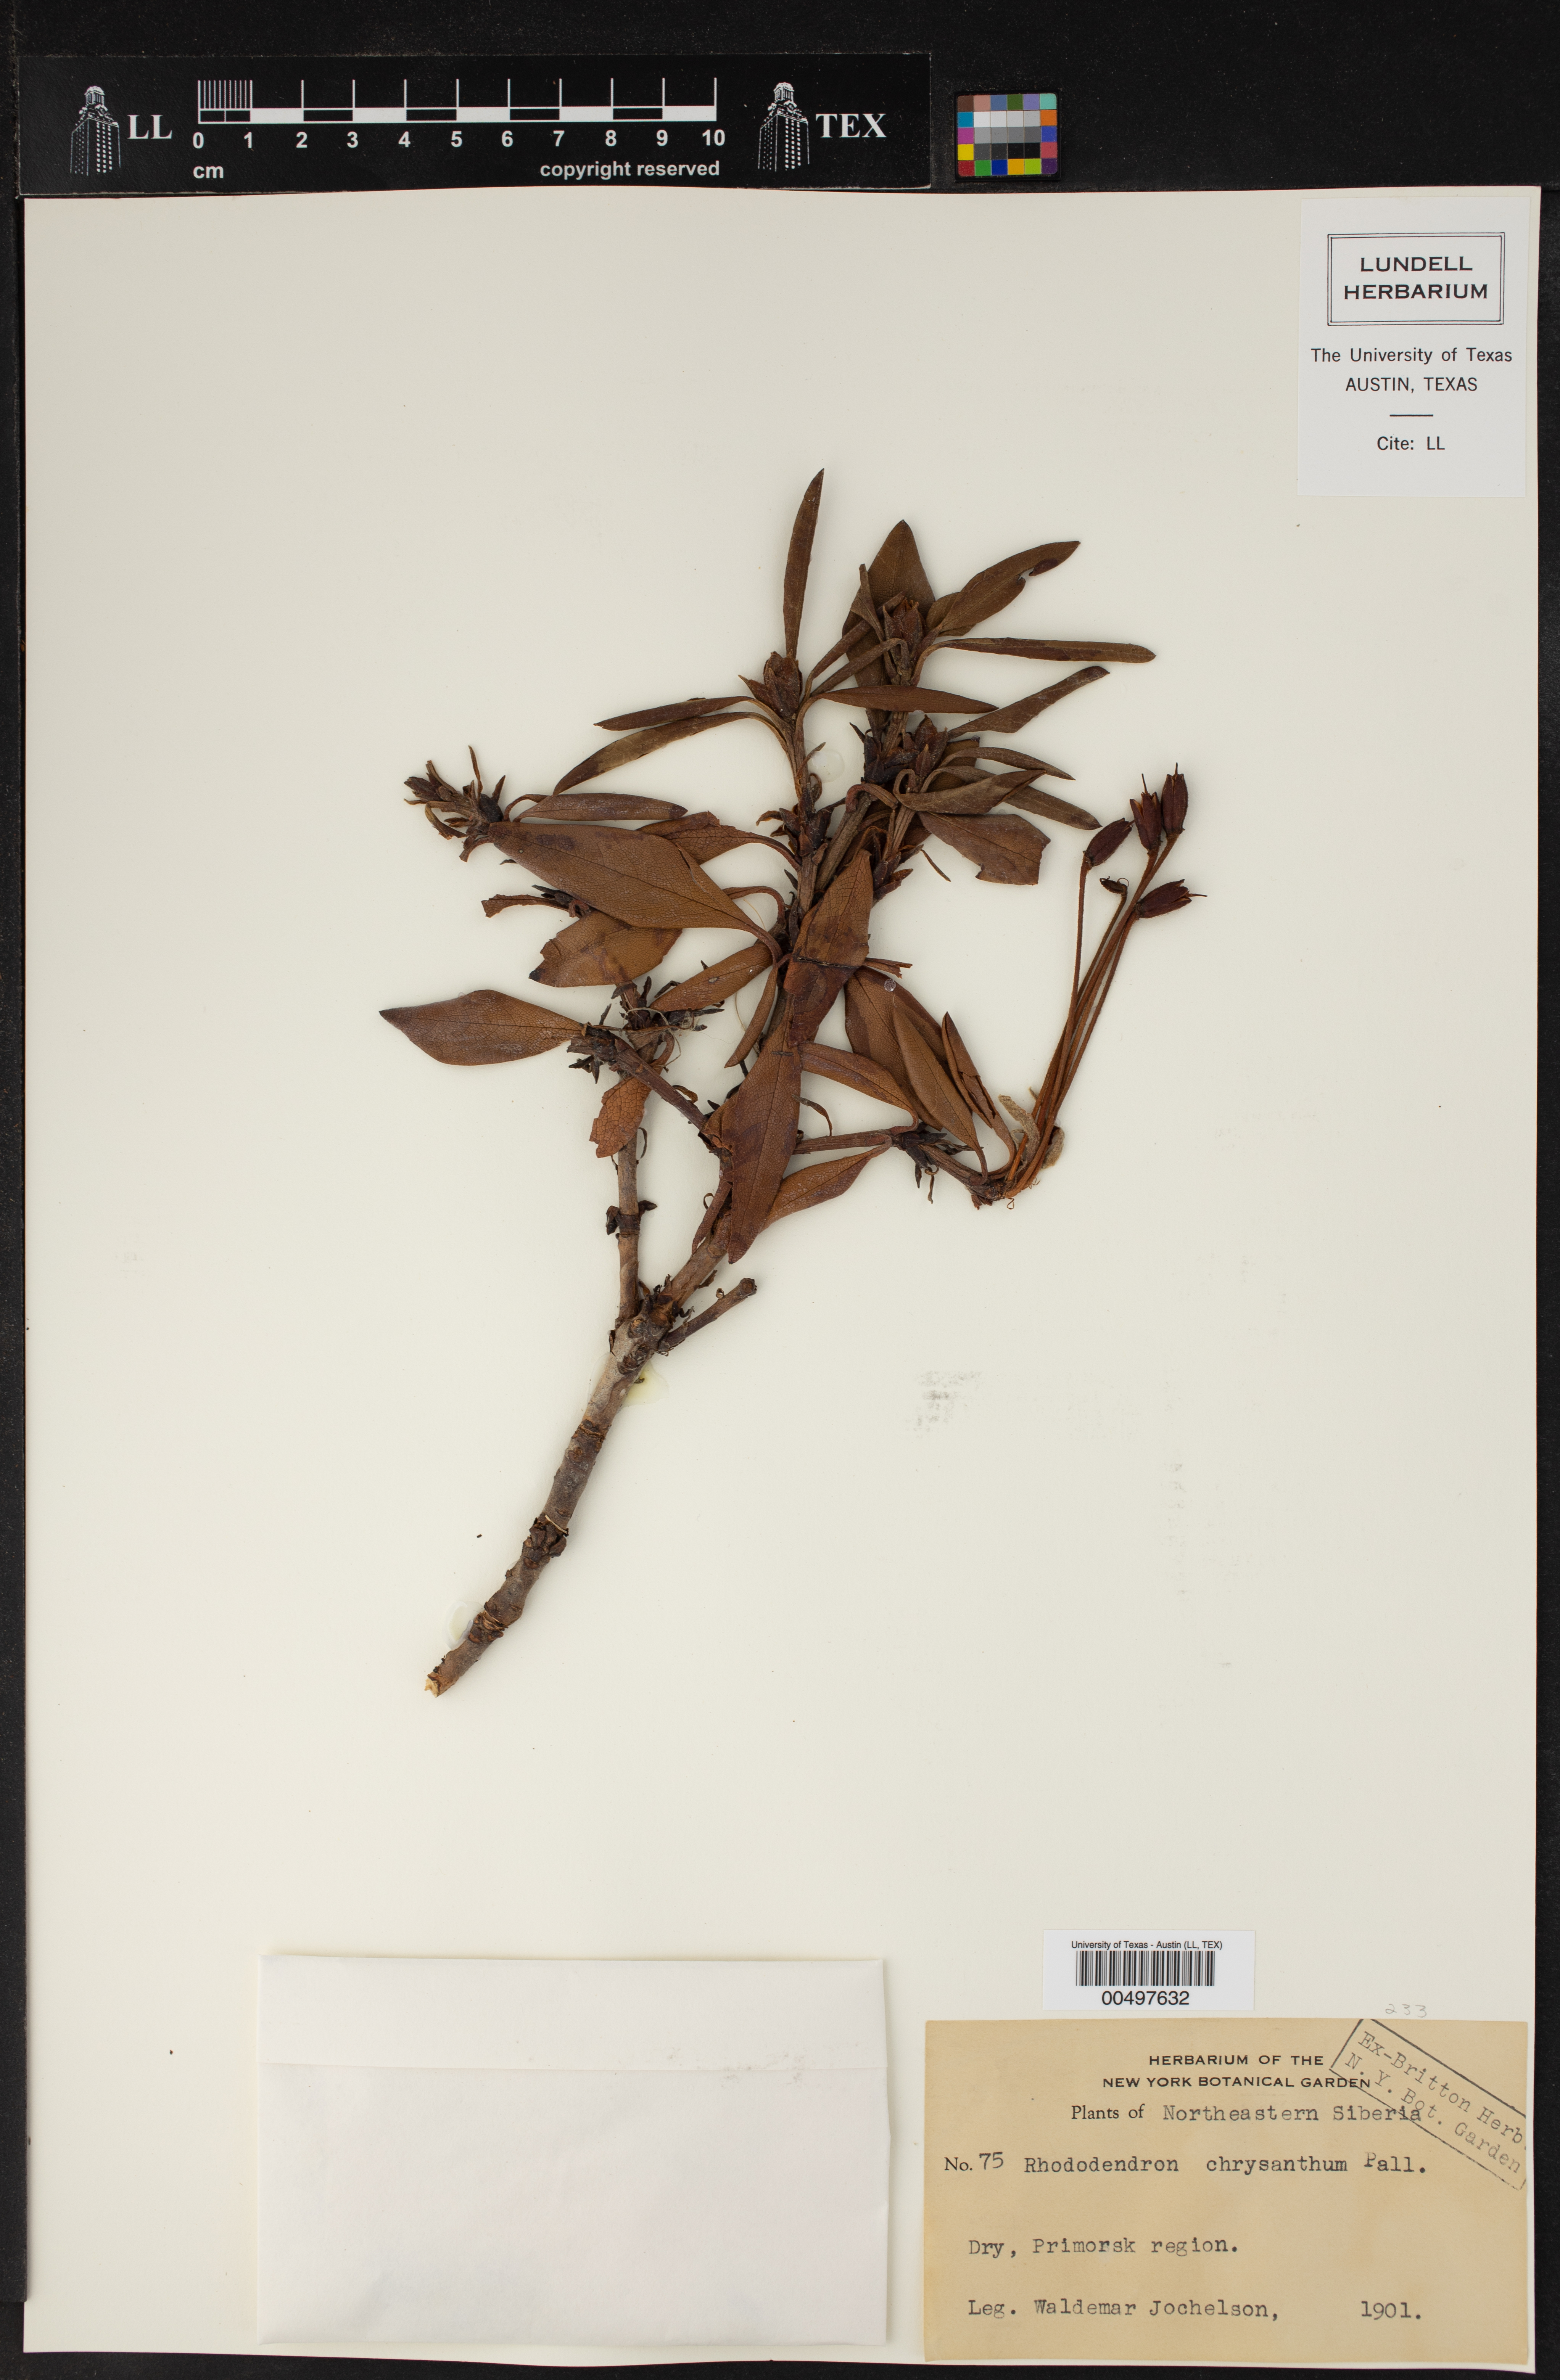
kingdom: Plantae
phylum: Tracheophyta
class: Magnoliopsida
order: Ericales
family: Ericaceae
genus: Rhododendron
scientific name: Rhododendron aureum
